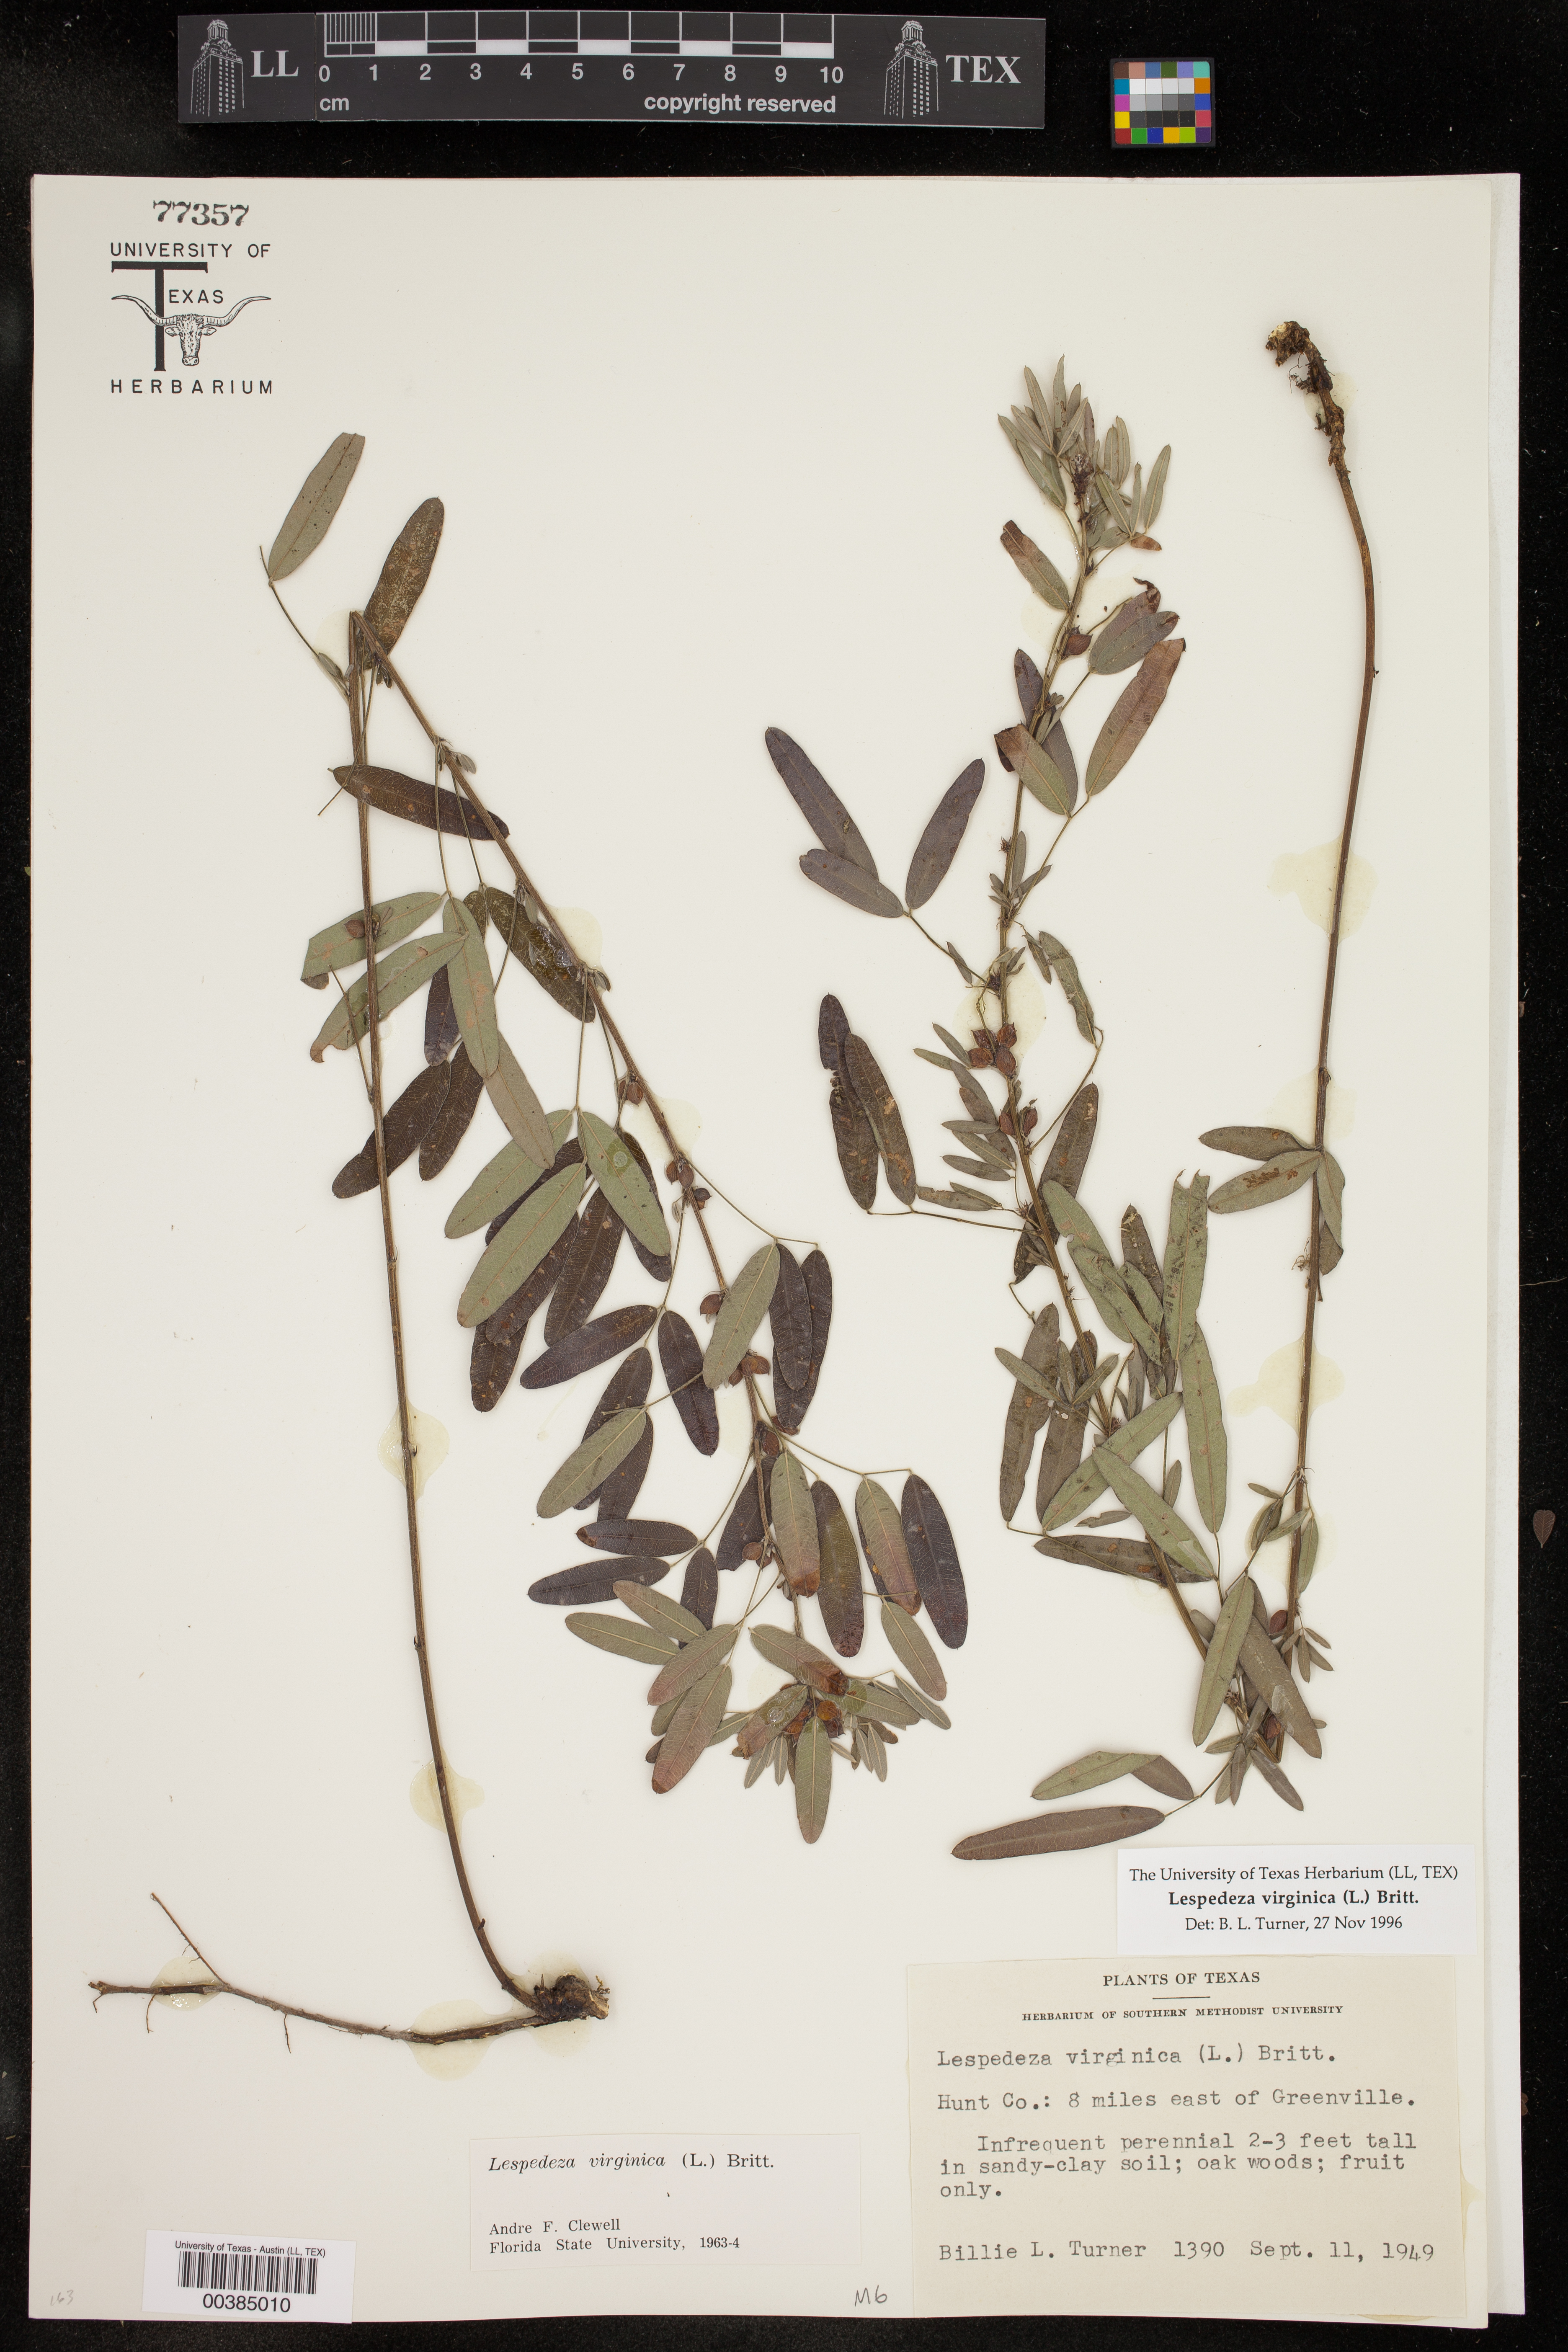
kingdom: Plantae
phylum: Tracheophyta
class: Magnoliopsida
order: Fabales
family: Fabaceae
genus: Lespedeza
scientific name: Lespedeza virginica
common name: Slender bush-clover
